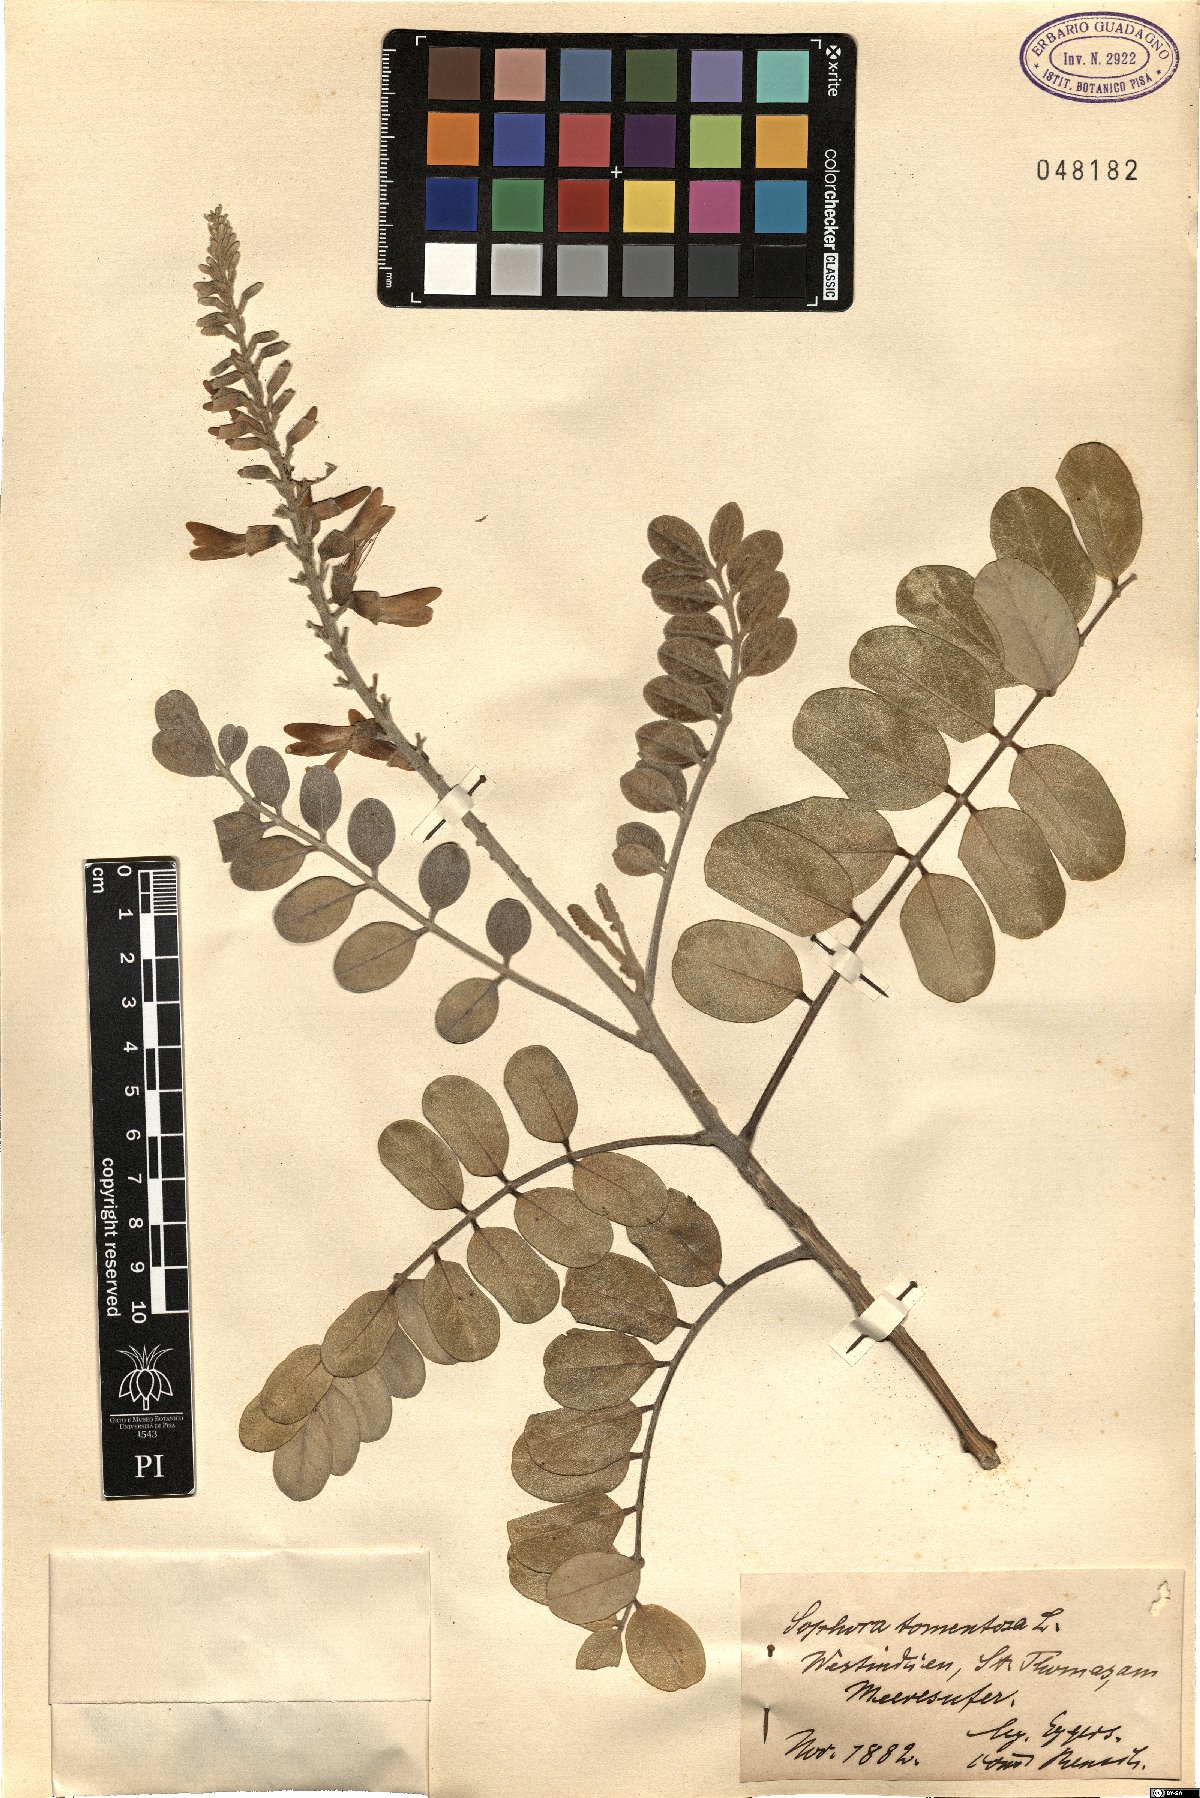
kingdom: Plantae
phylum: Tracheophyta
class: Magnoliopsida
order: Fabales
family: Fabaceae
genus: Sophora
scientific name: Sophora tomentosa
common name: Yellow necklacepod
